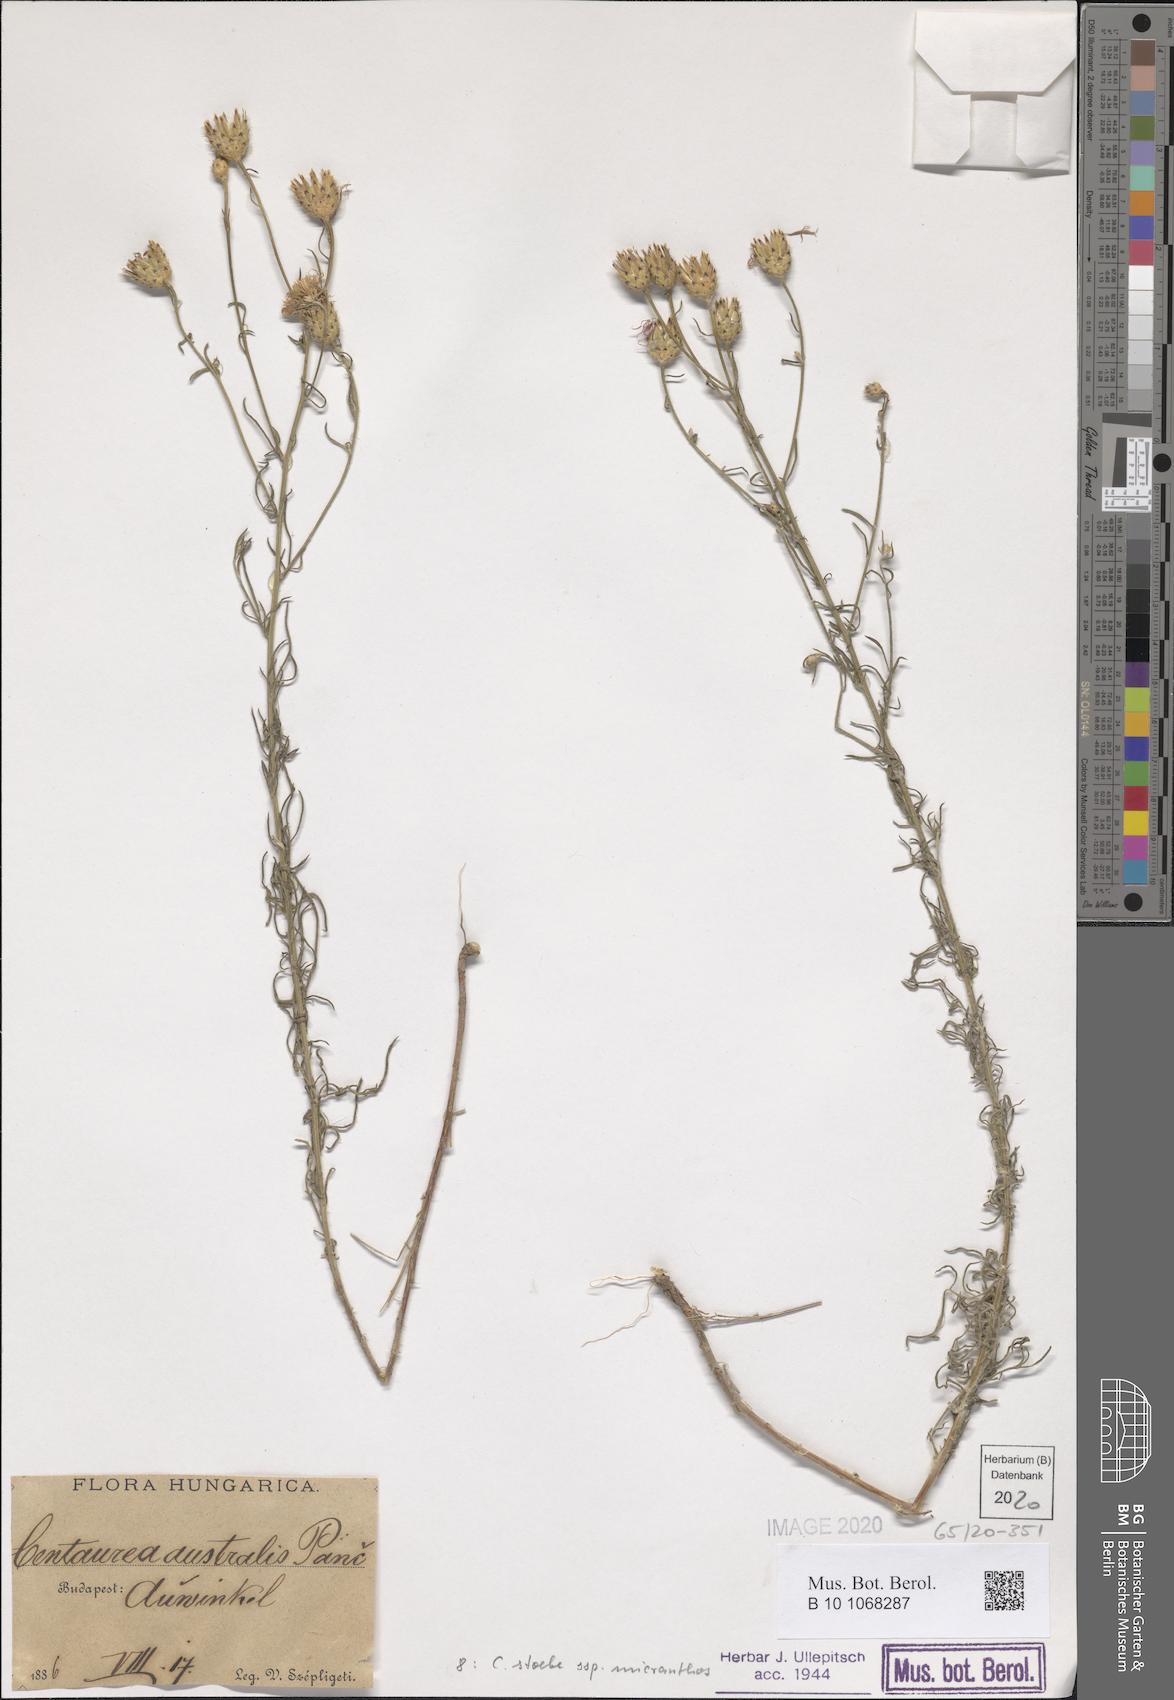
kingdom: Plantae
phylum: Tracheophyta
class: Magnoliopsida
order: Asterales
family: Asteraceae
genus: Centaurea
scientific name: Centaurea australis
